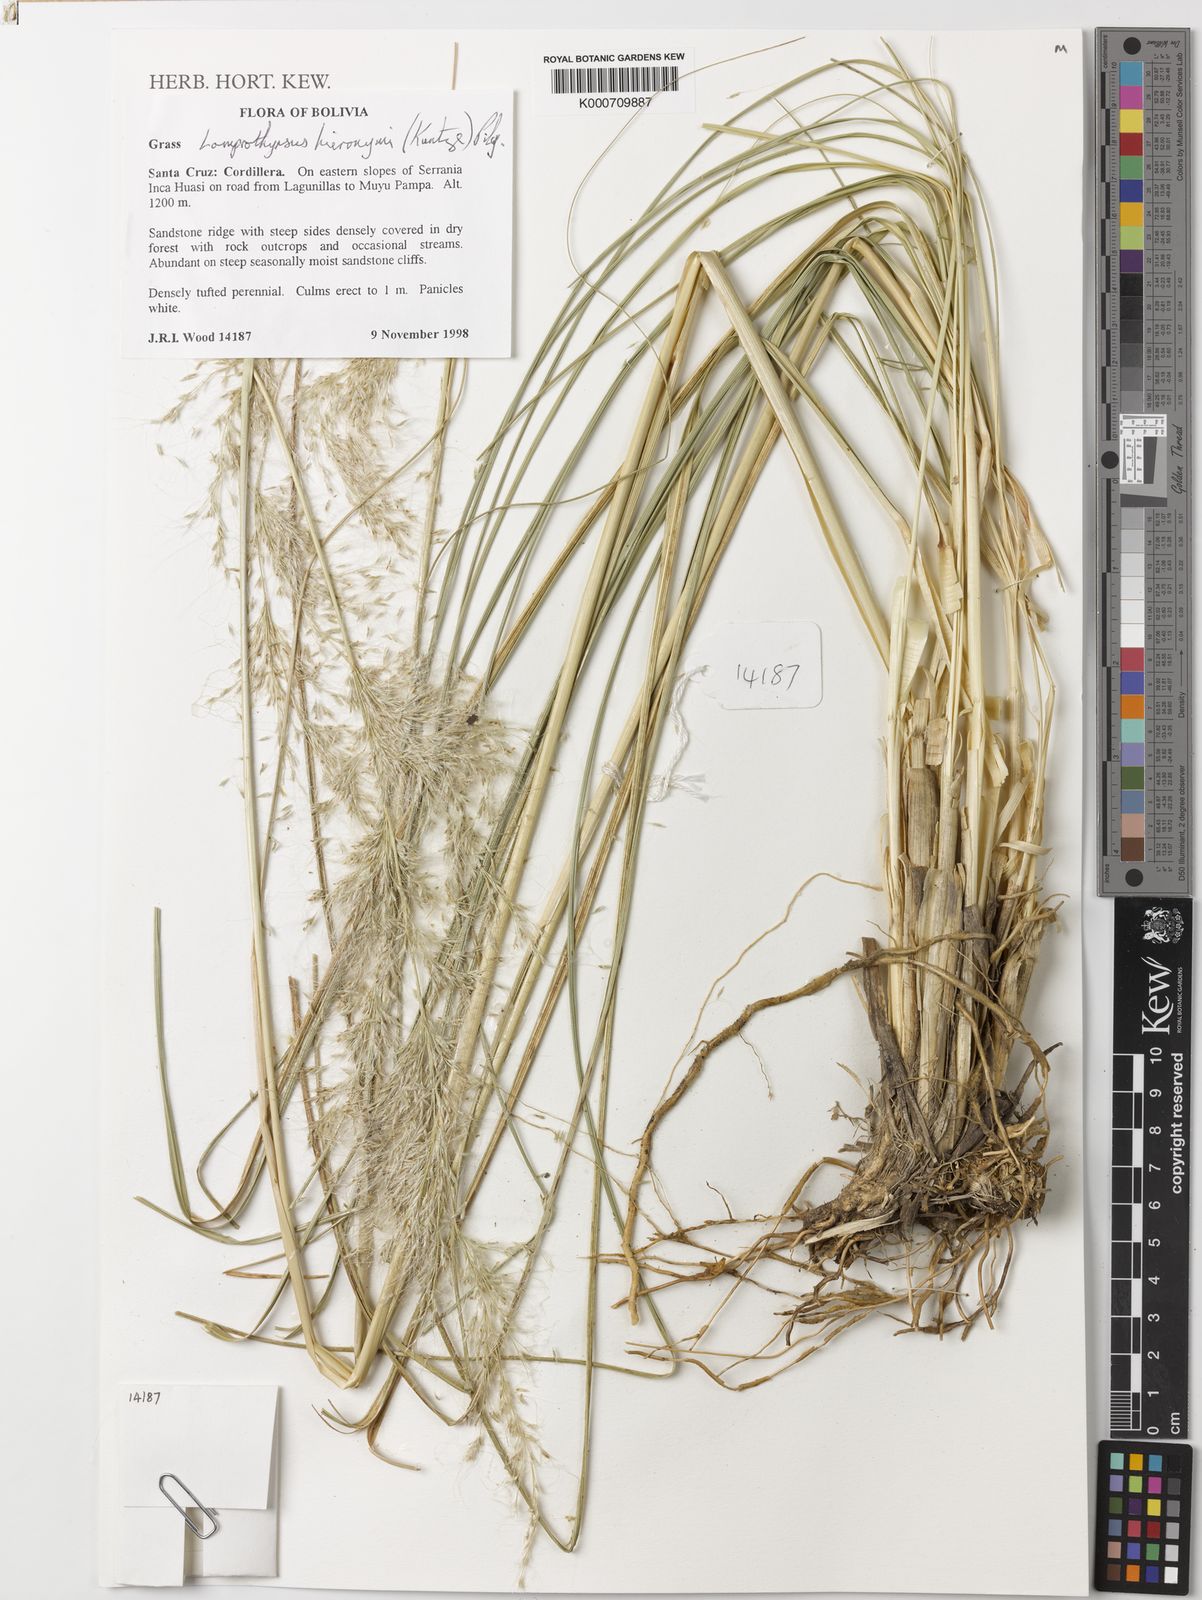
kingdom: Plantae
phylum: Tracheophyta
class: Liliopsida
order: Poales
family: Poaceae
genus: Cortaderia
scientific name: Cortaderia hieronymi
